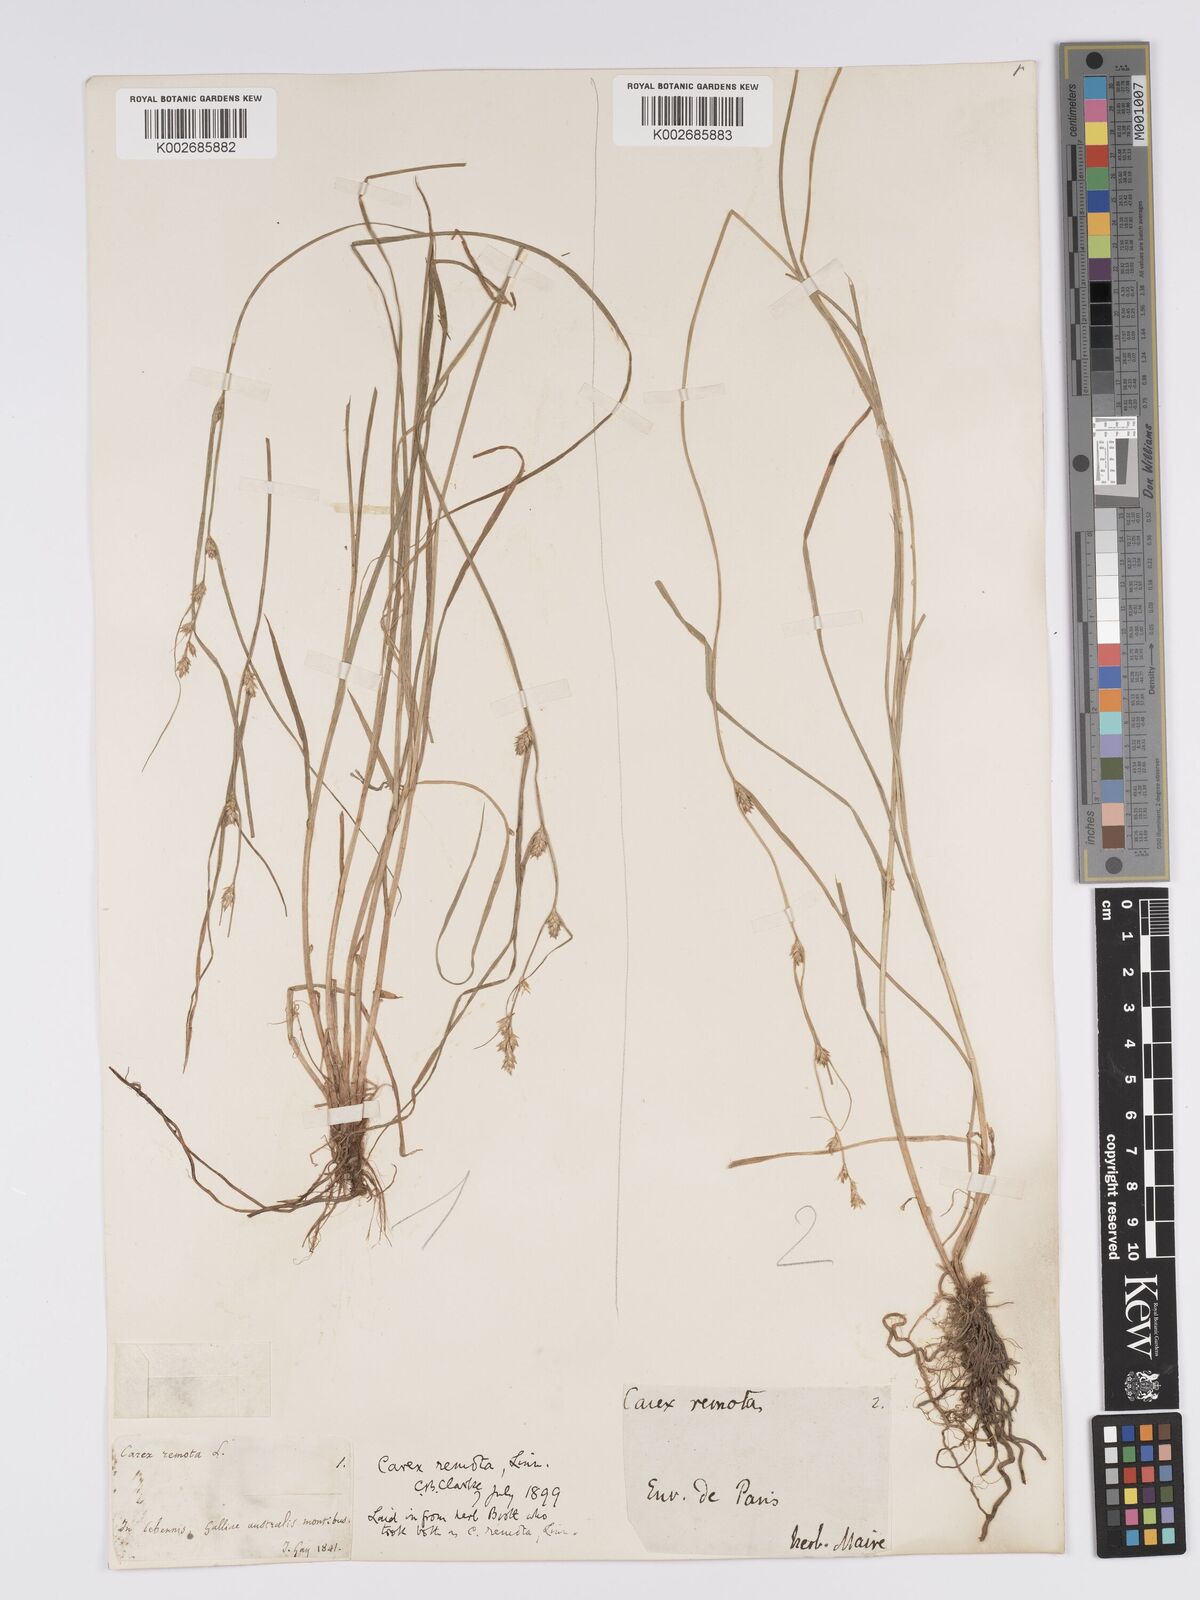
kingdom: Plantae
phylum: Tracheophyta
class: Liliopsida
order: Poales
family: Cyperaceae
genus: Carex
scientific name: Carex remota
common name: Remote sedge
